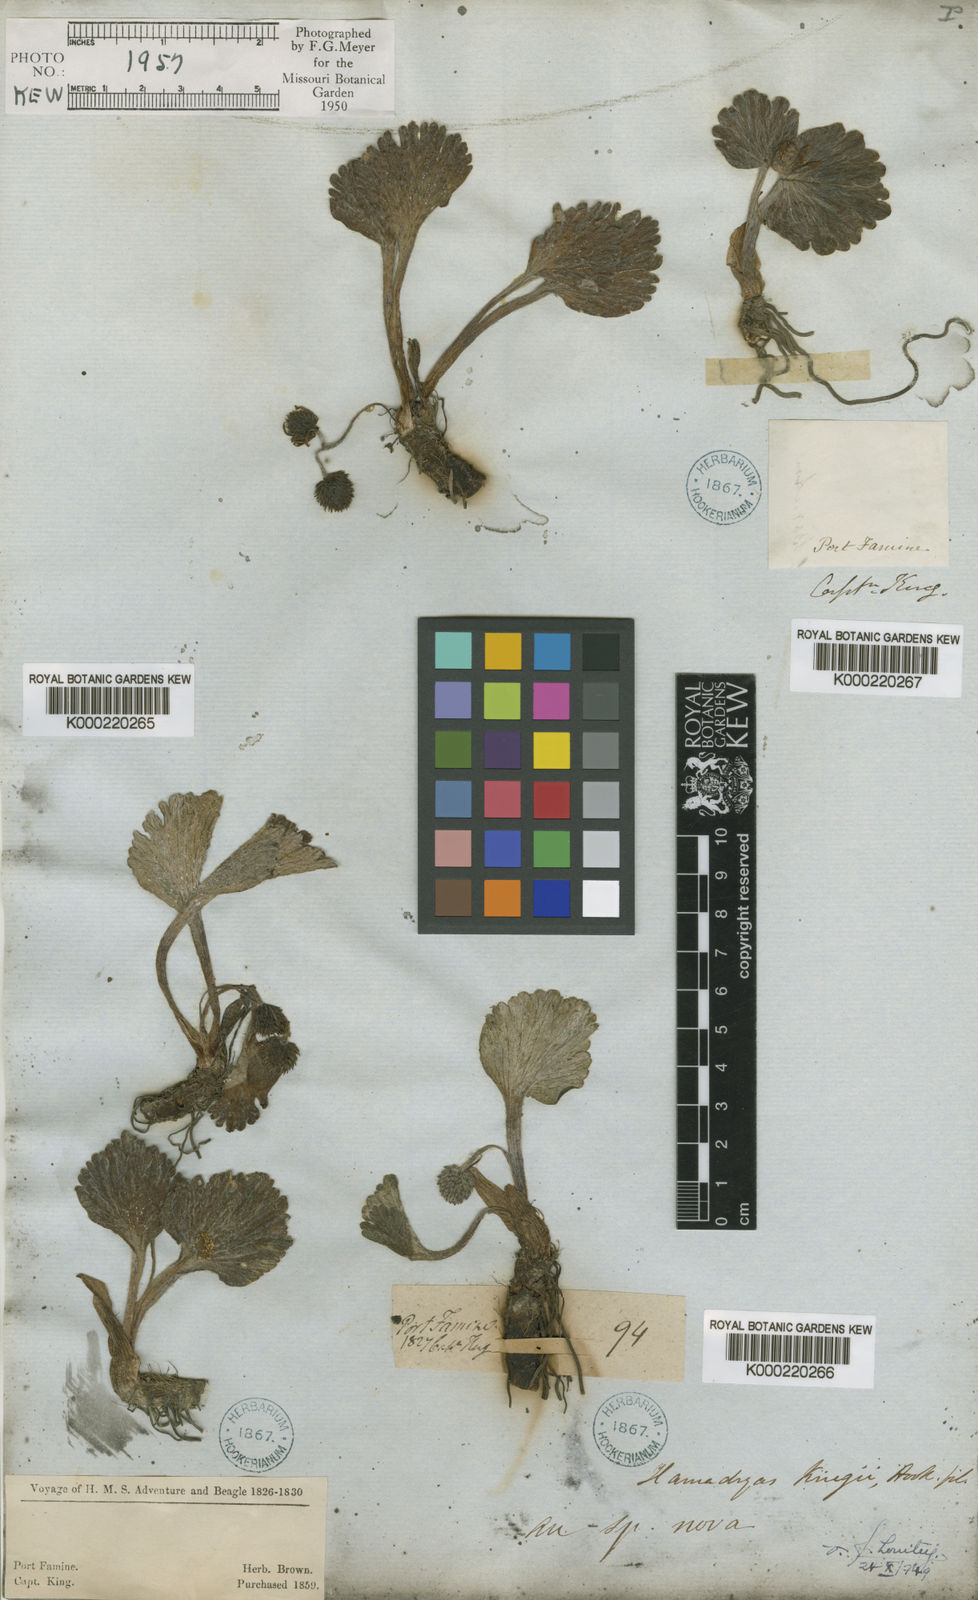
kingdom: Plantae
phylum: Tracheophyta
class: Magnoliopsida
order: Ranunculales
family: Ranunculaceae
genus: Hamadryas
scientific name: Hamadryas kingii
